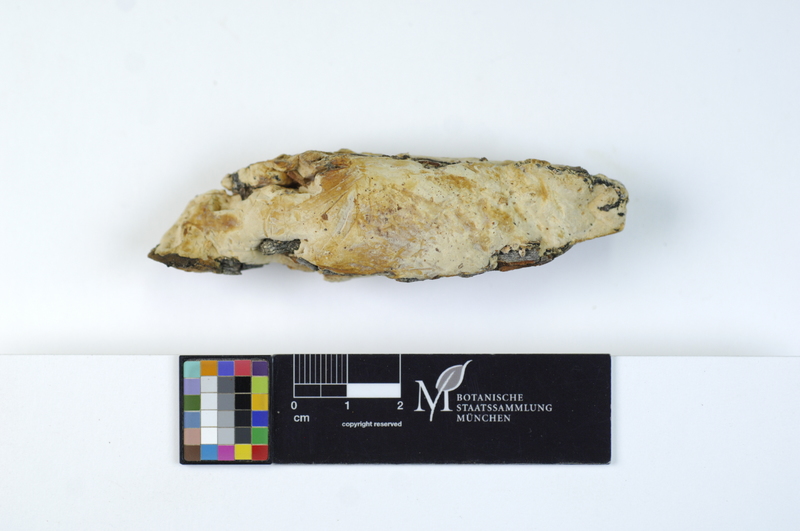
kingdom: Plantae
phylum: Tracheophyta
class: Magnoliopsida
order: Malpighiales
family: Salicaceae
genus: Salix
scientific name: Salix caprea
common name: Goat willow
